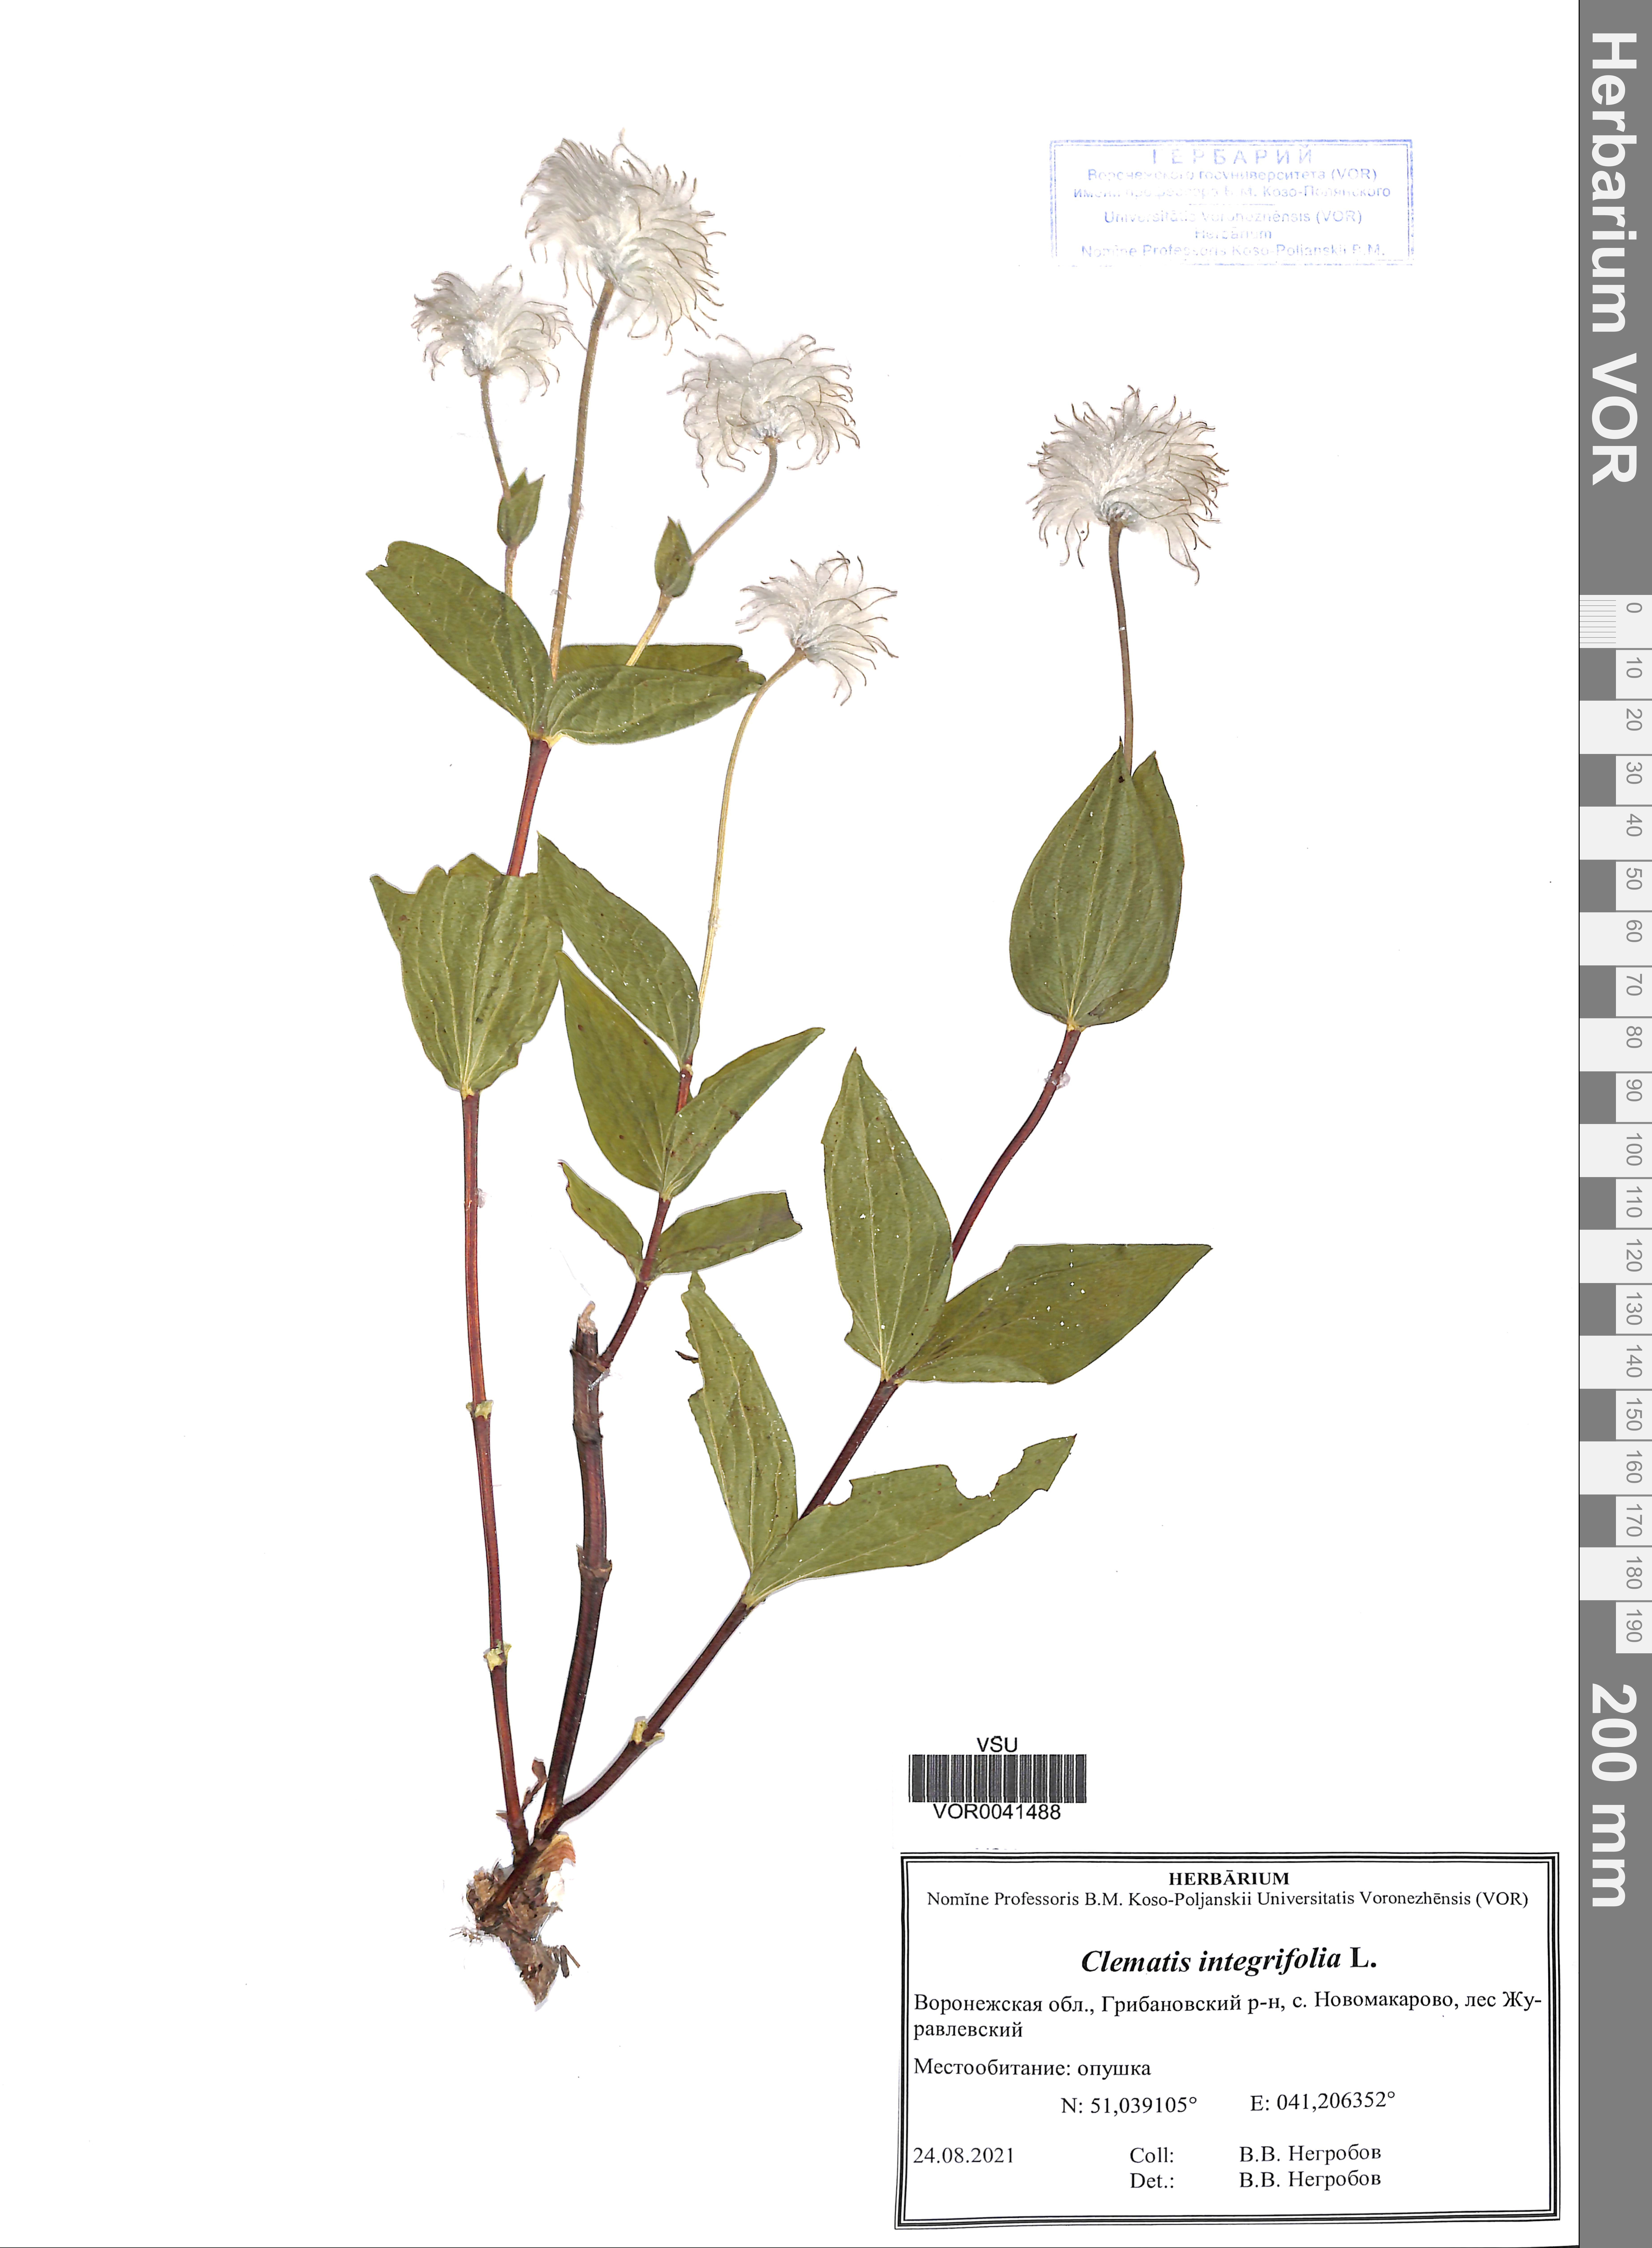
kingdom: Plantae
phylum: Tracheophyta
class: Magnoliopsida
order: Ranunculales
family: Ranunculaceae
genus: Clematis
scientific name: Clematis integrifolia
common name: Solitary clematis
